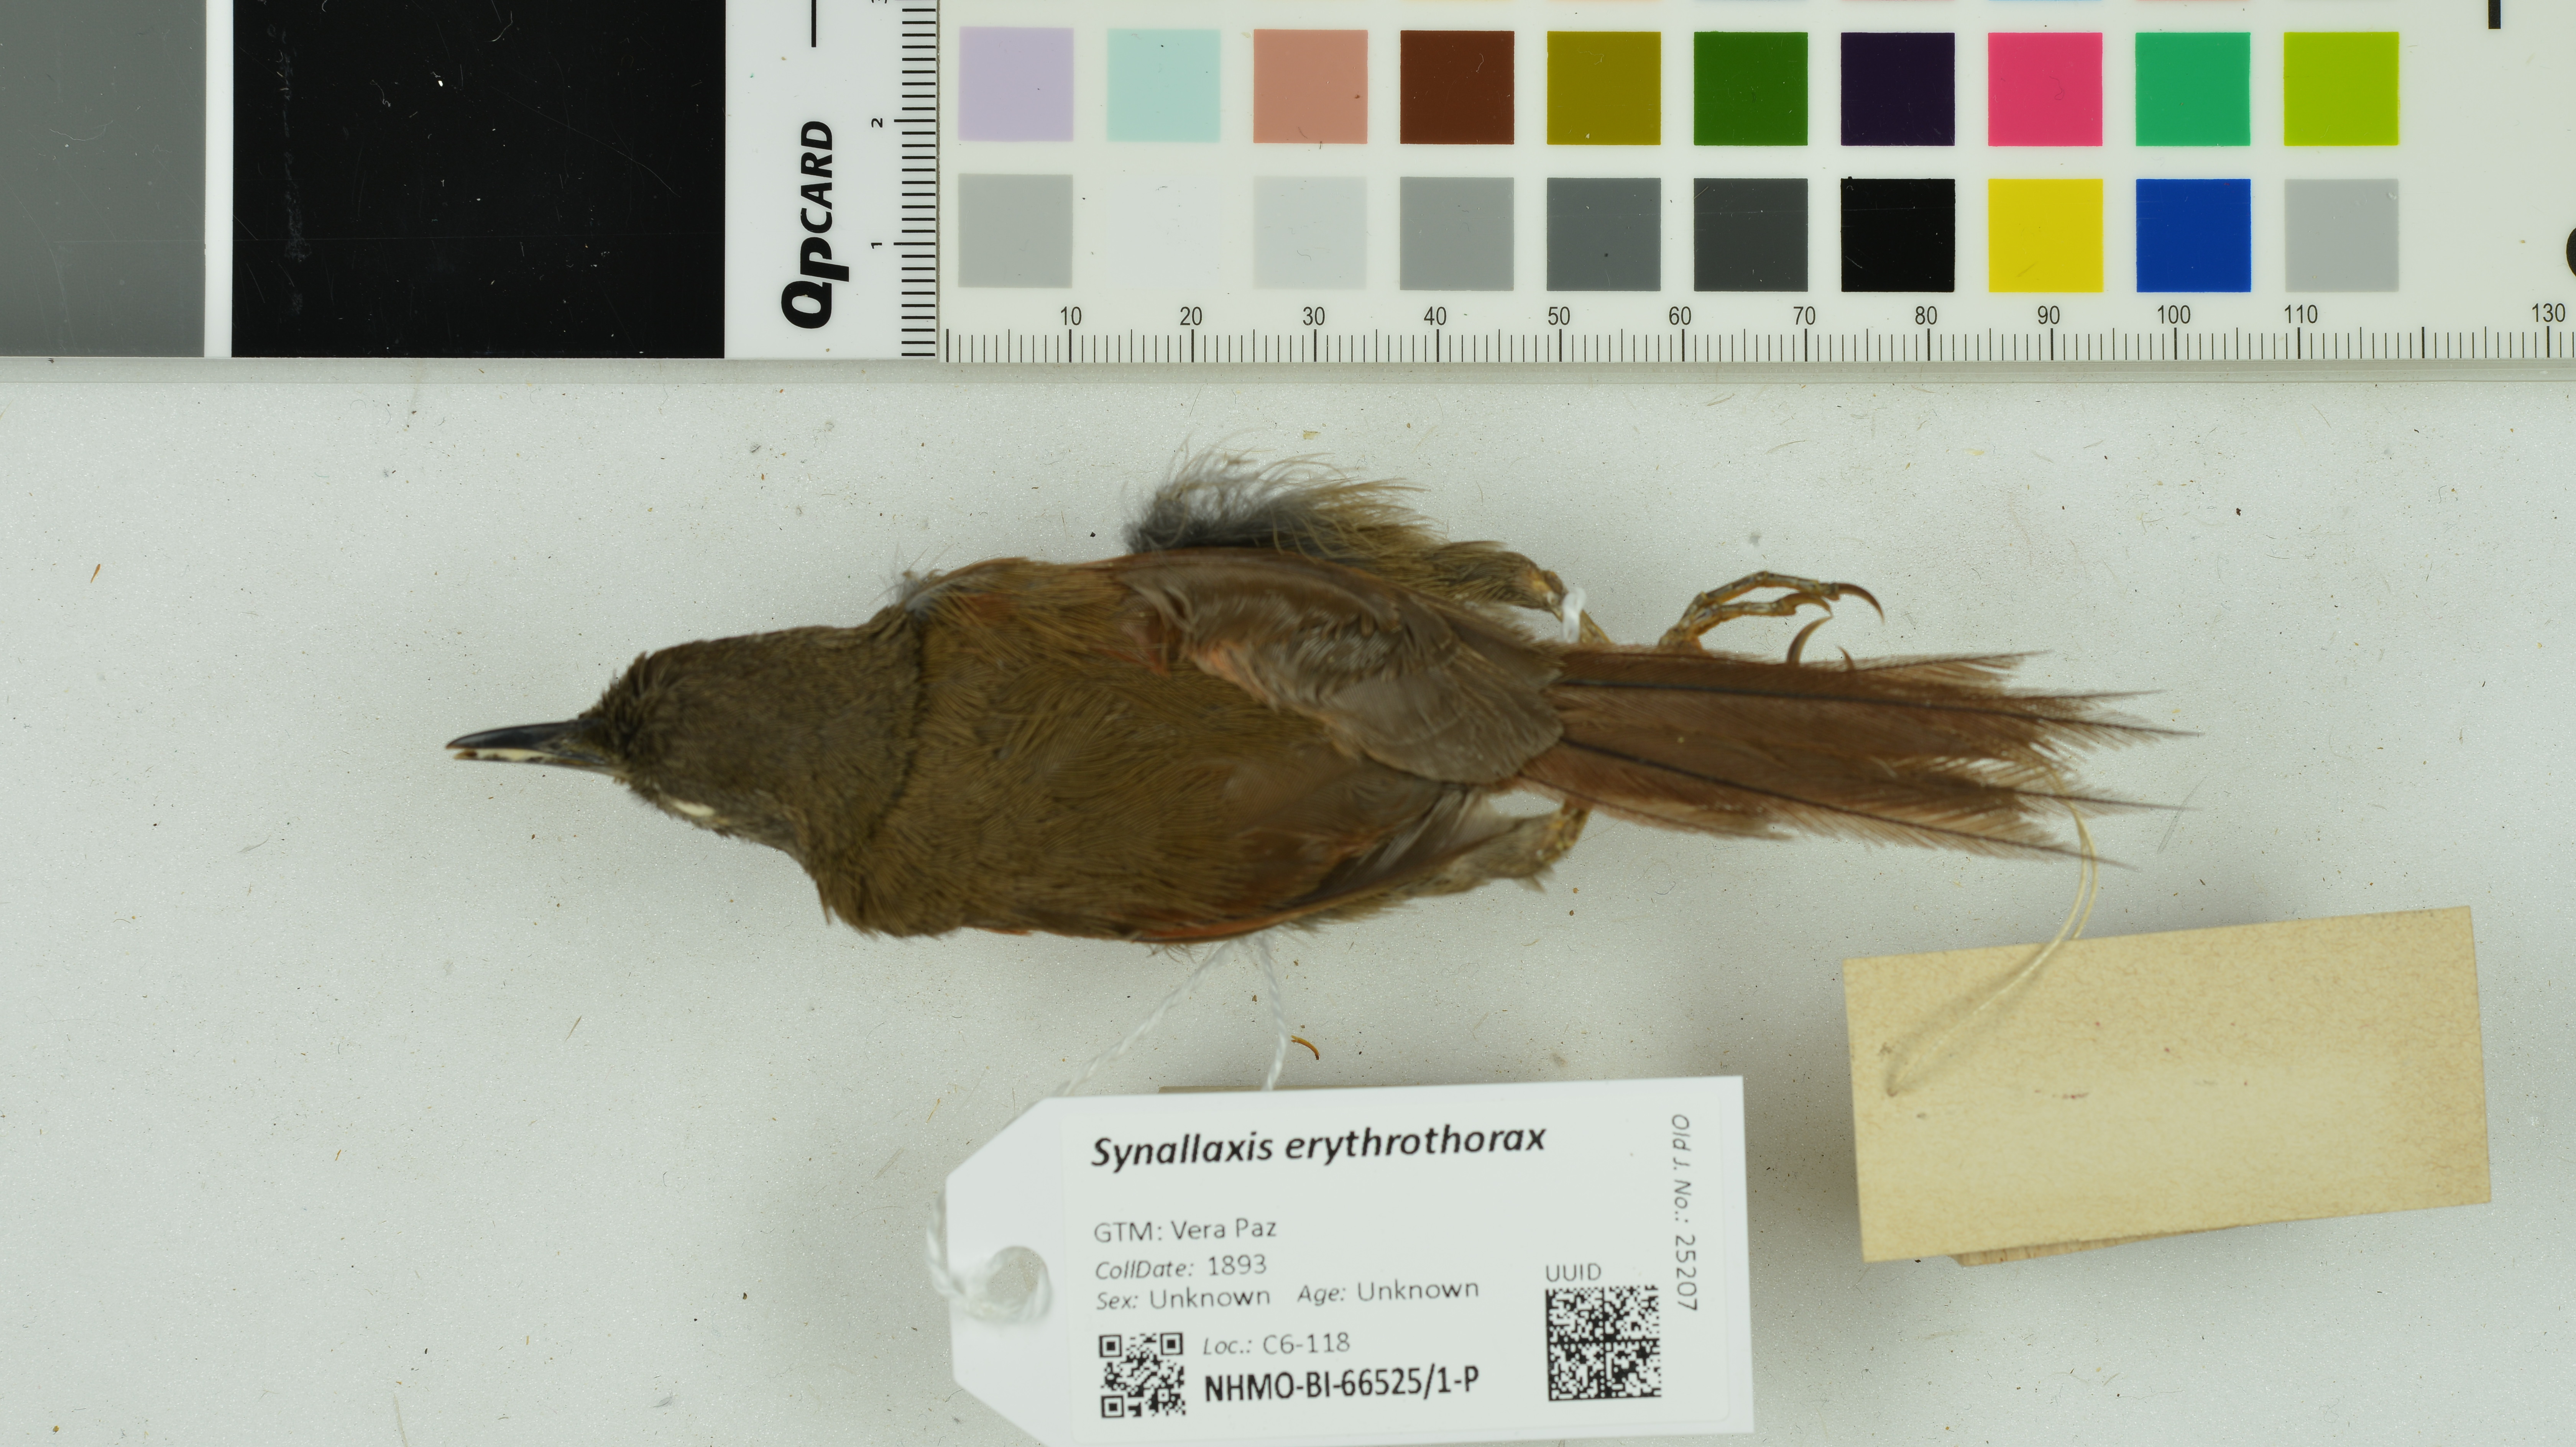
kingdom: Animalia
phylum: Chordata
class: Aves
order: Passeriformes
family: Furnariidae
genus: Synallaxis
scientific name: Synallaxis erythrothorax
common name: Rufous-breasted spinetail
